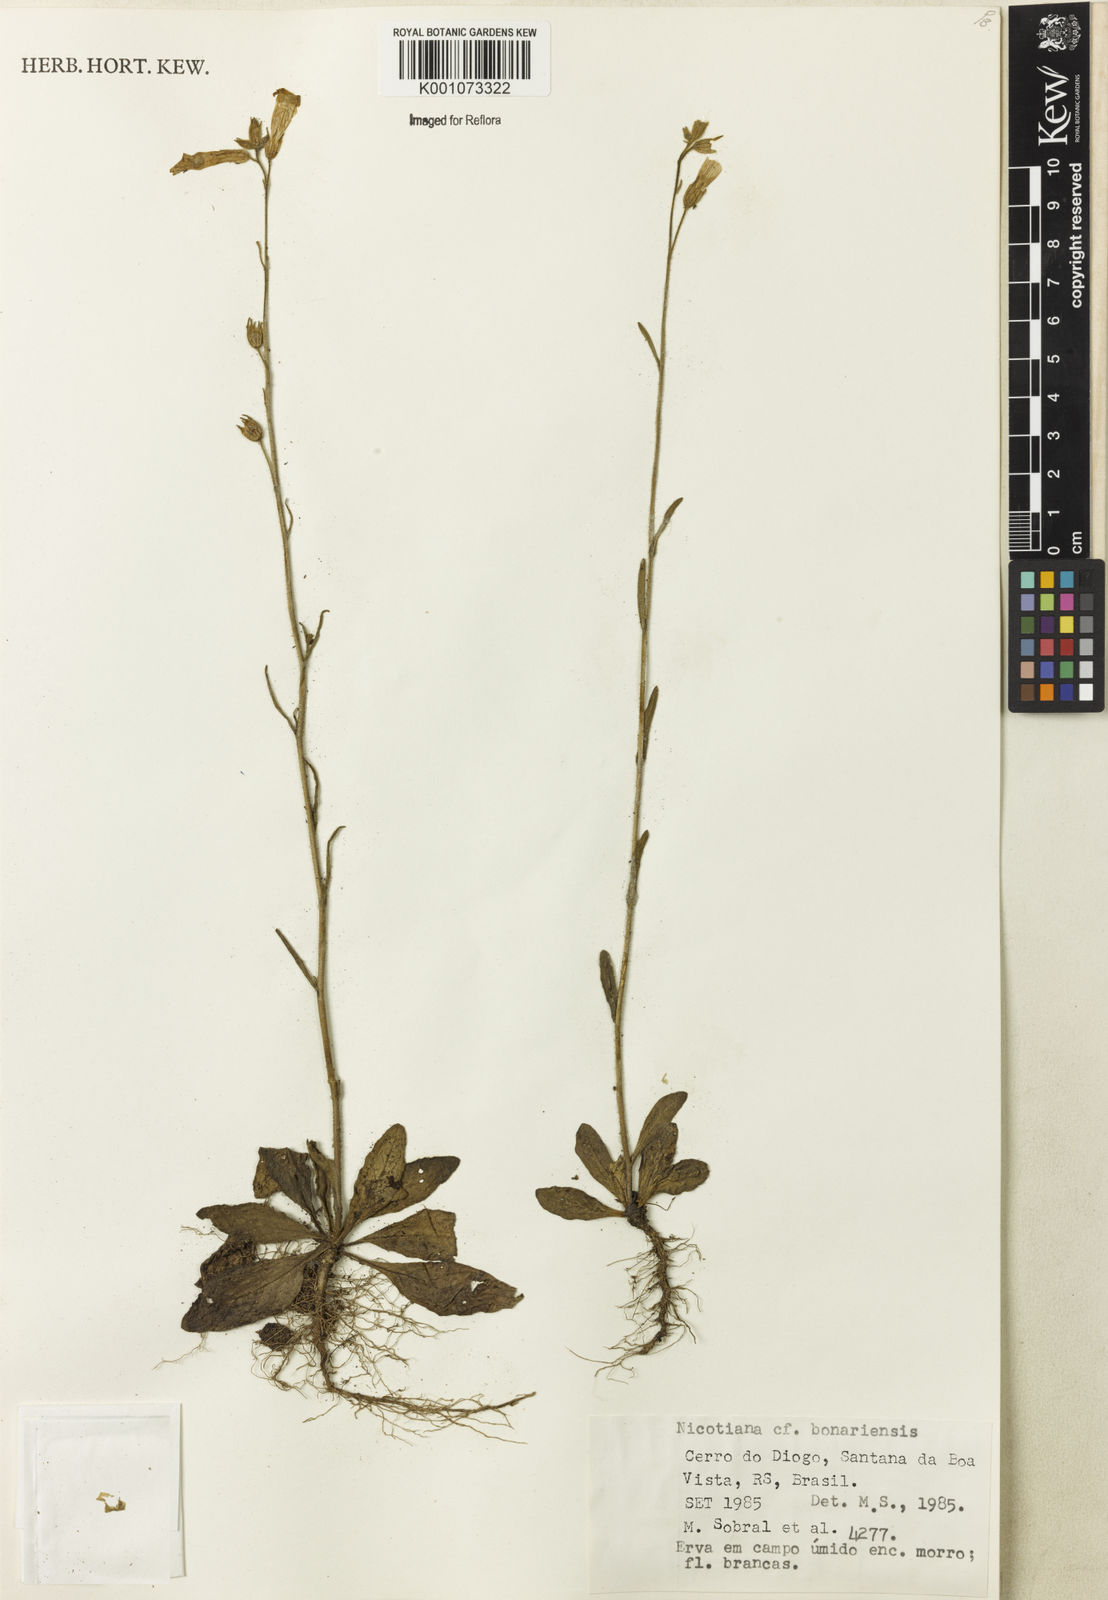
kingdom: Plantae
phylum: Tracheophyta
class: Magnoliopsida
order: Solanales
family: Solanaceae
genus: Nicotiana
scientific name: Nicotiana bonariensis
